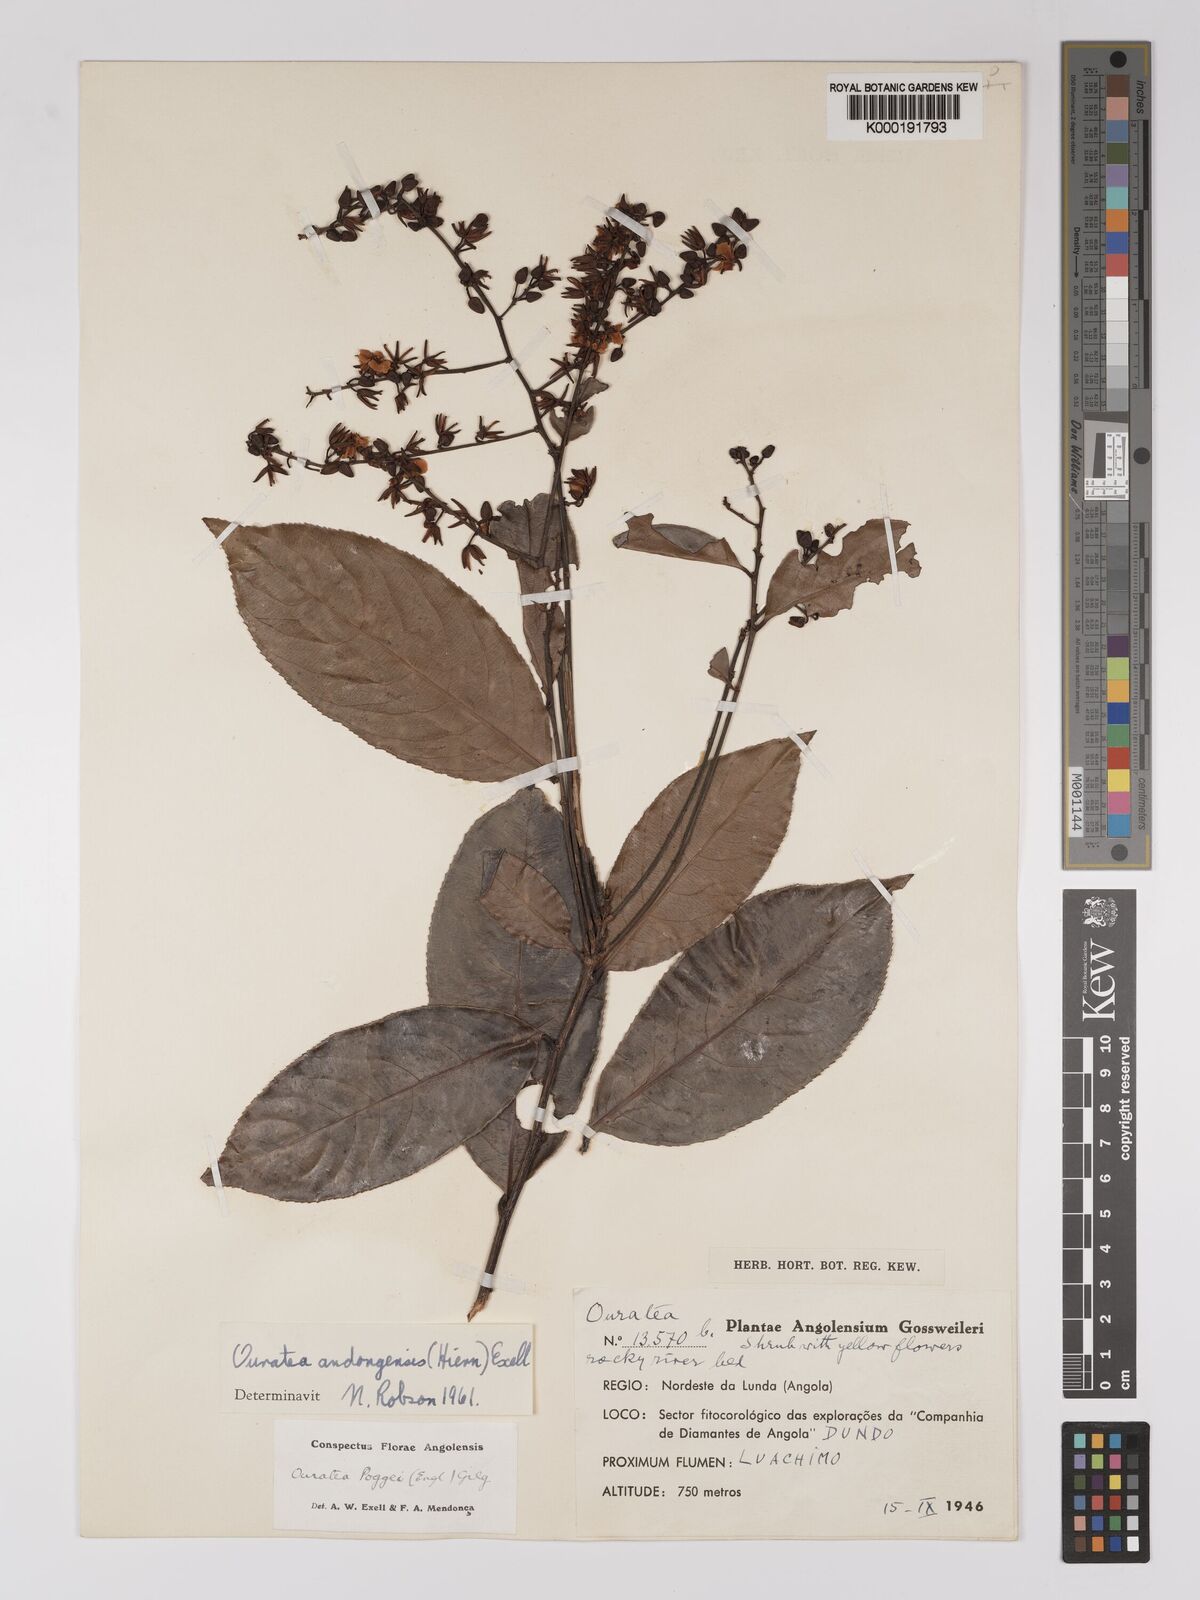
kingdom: Plantae
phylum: Tracheophyta
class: Magnoliopsida
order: Malpighiales
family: Ochnaceae
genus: Campylospermum
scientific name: Campylospermum
